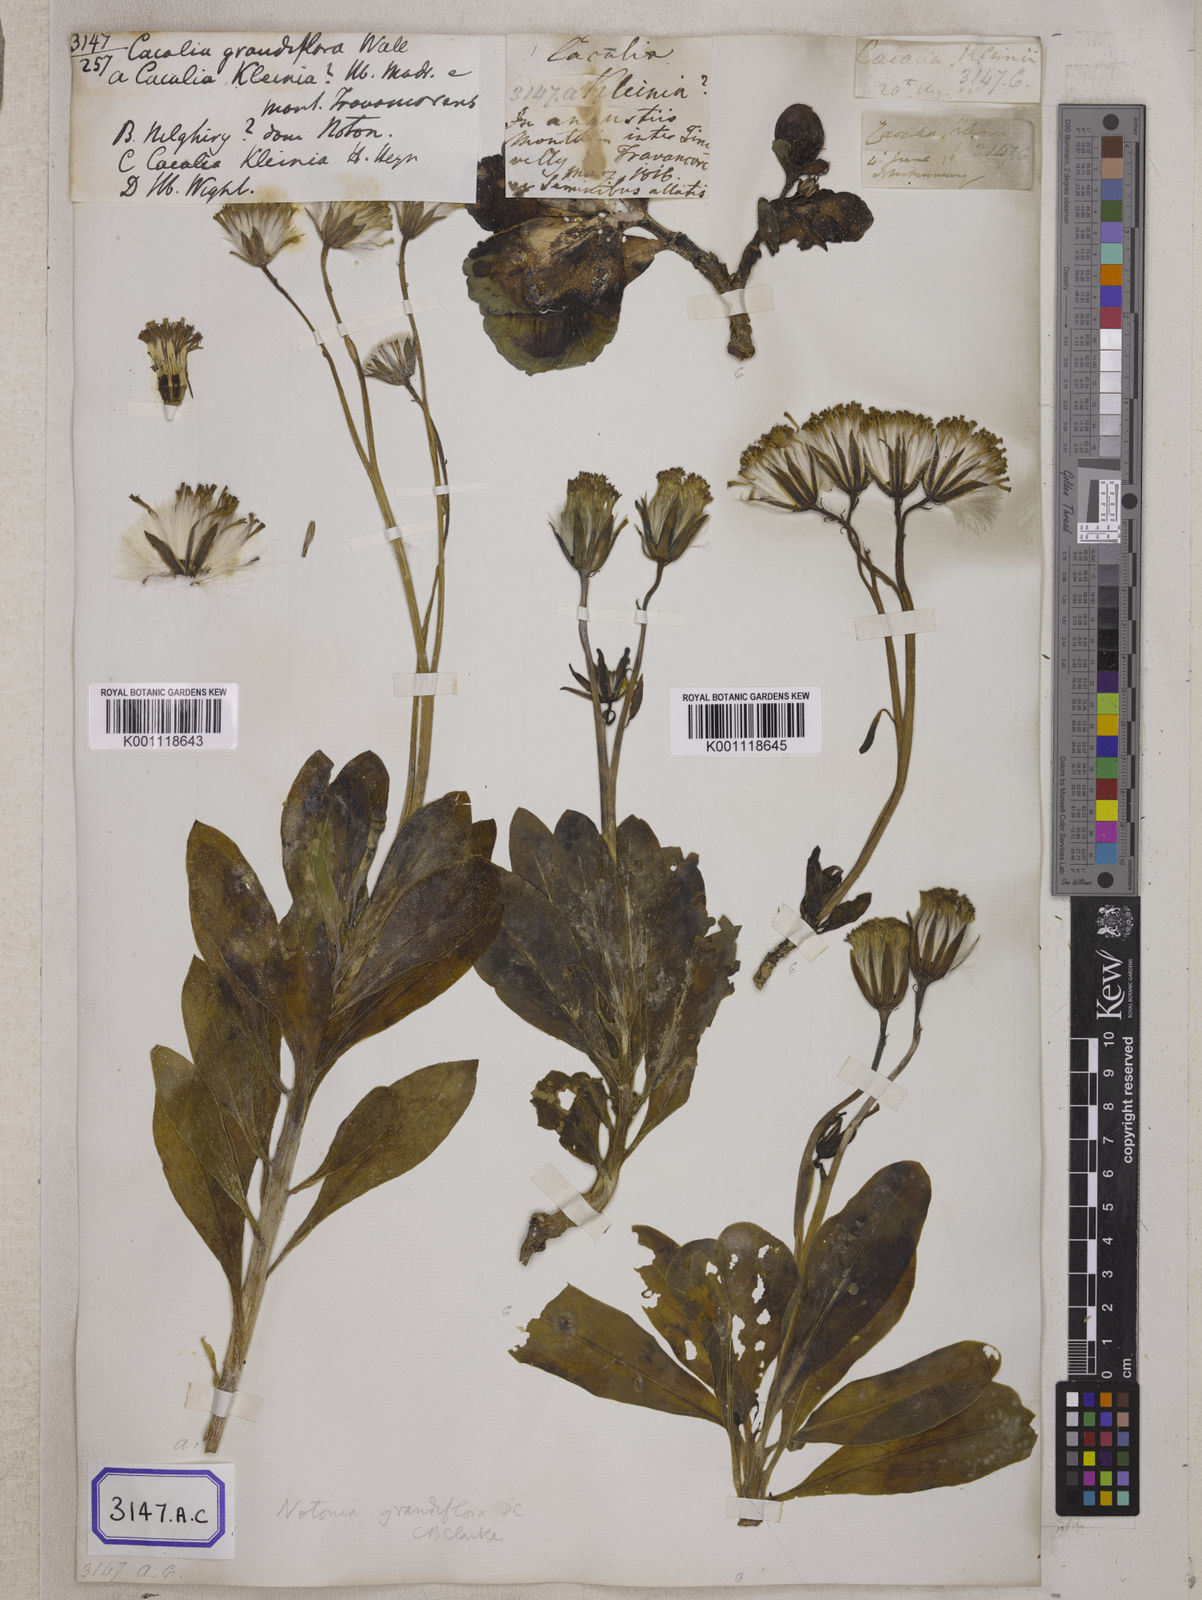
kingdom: Plantae
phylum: Tracheophyta
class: Magnoliopsida
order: Asterales
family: Asteraceae
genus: Kleinia
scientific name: Kleinia grandiflora
